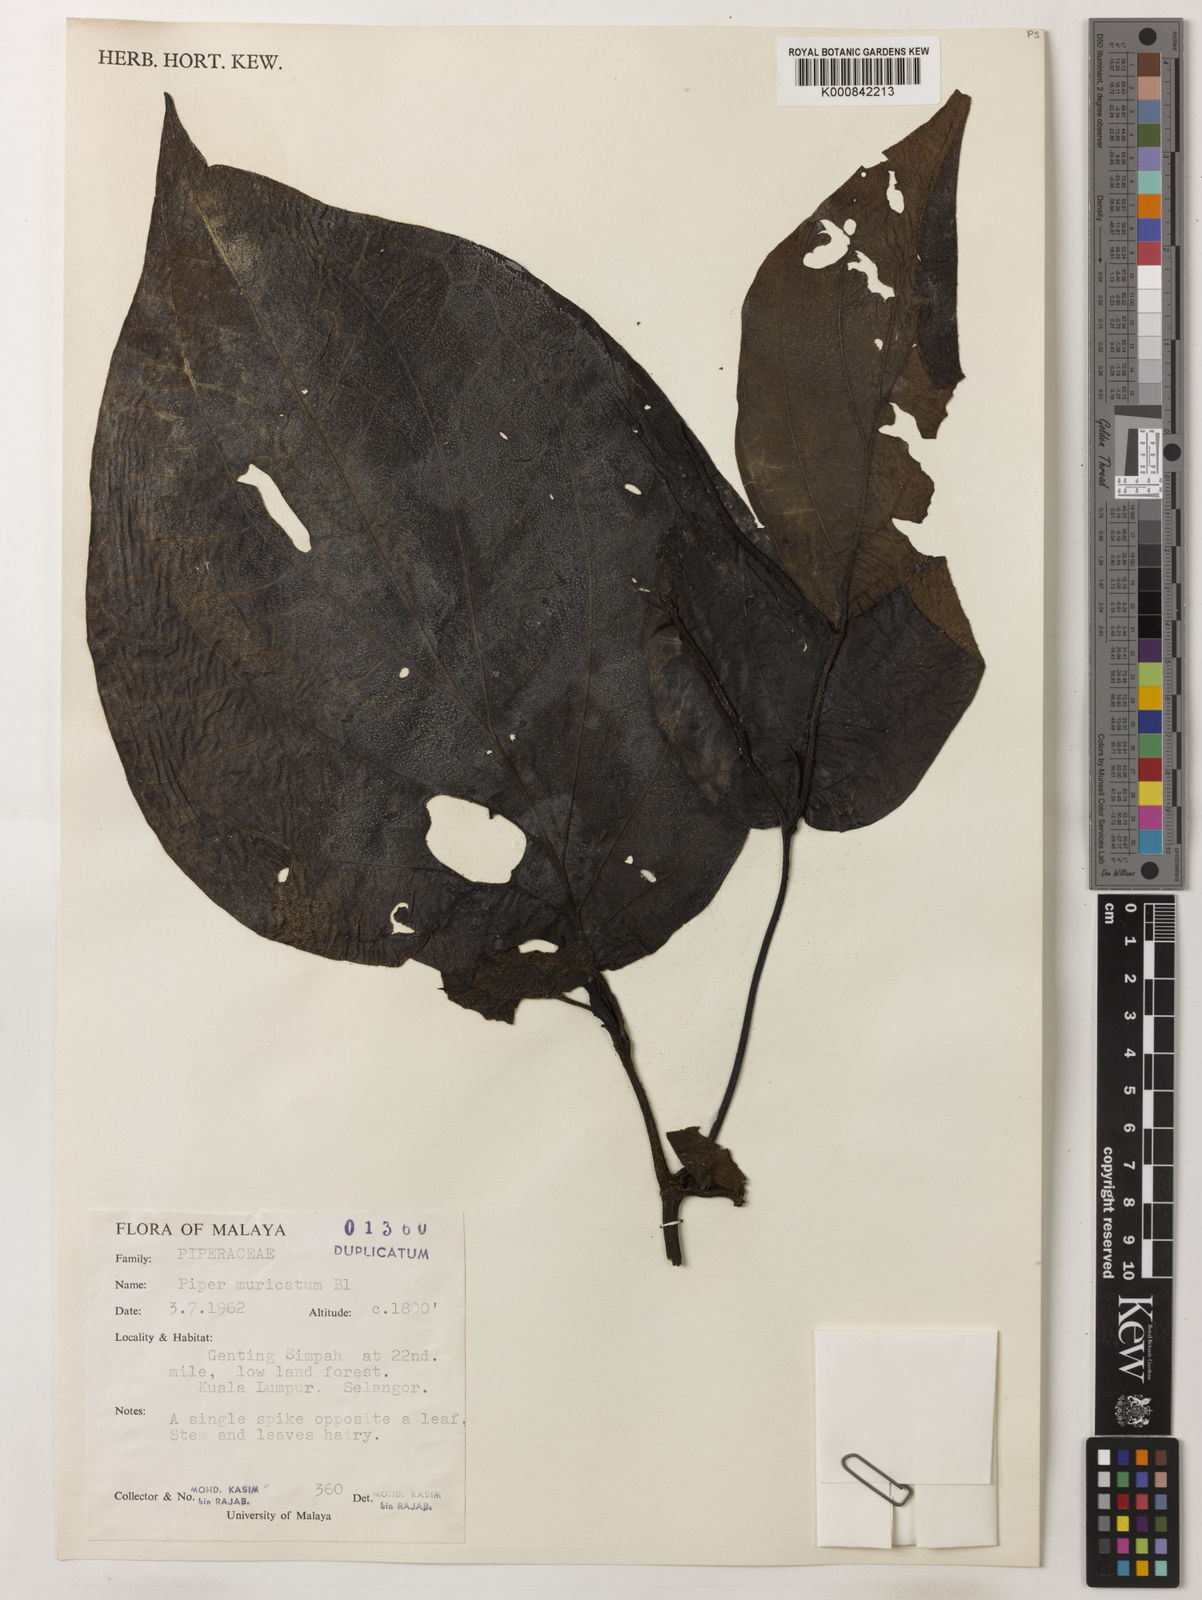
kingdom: Plantae
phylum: Tracheophyta
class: Magnoliopsida
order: Piperales
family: Piperaceae
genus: Piper
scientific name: Piper muricatum
